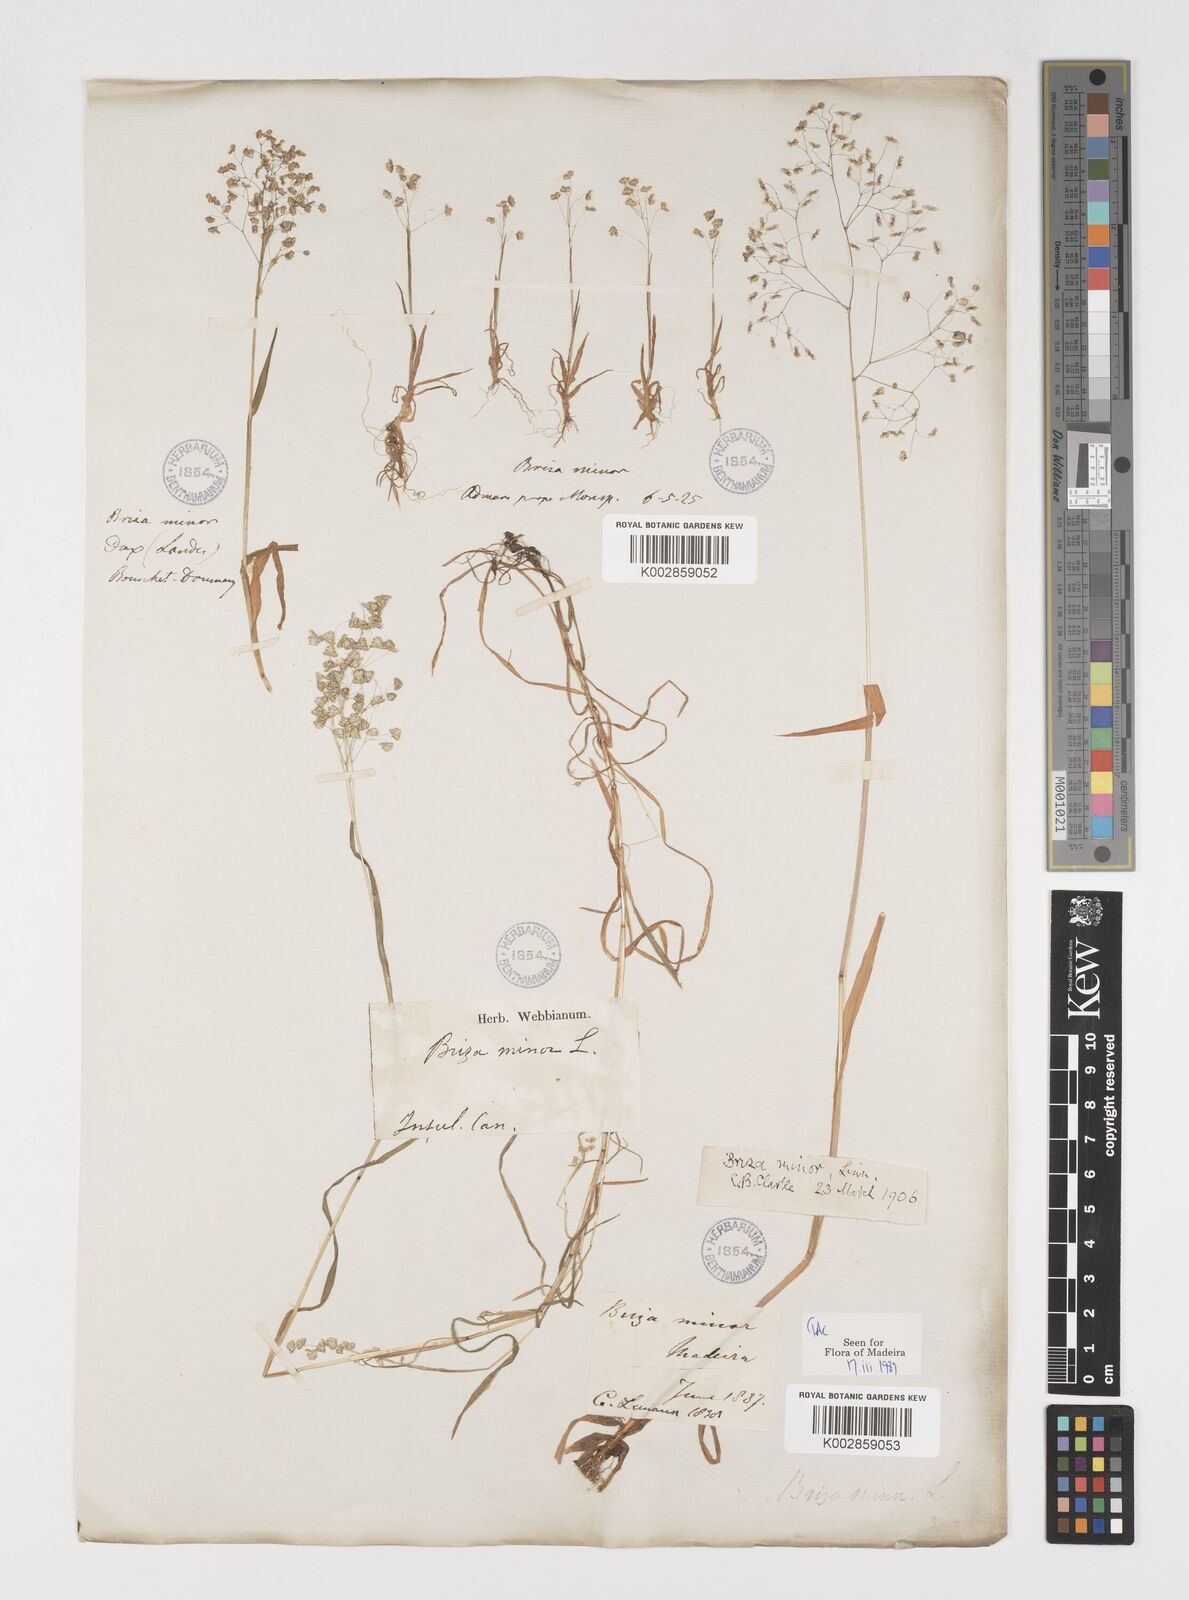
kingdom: Plantae
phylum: Tracheophyta
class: Liliopsida
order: Poales
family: Poaceae
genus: Briza
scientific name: Briza minor
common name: Lesser quaking-grass
